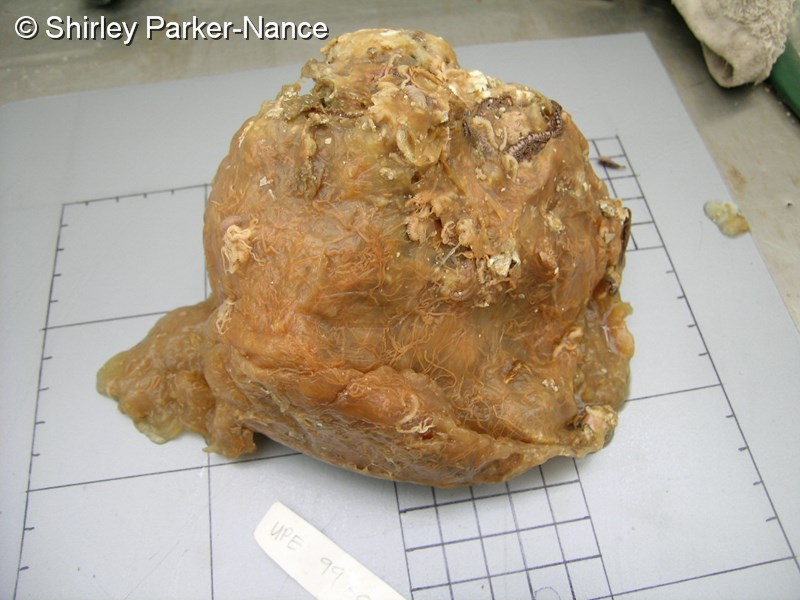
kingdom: Animalia
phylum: Chordata
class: Ascidiacea
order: Aplousobranchia
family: Pseudodistomidae
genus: Pseudodistoma
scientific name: Pseudodistoma
